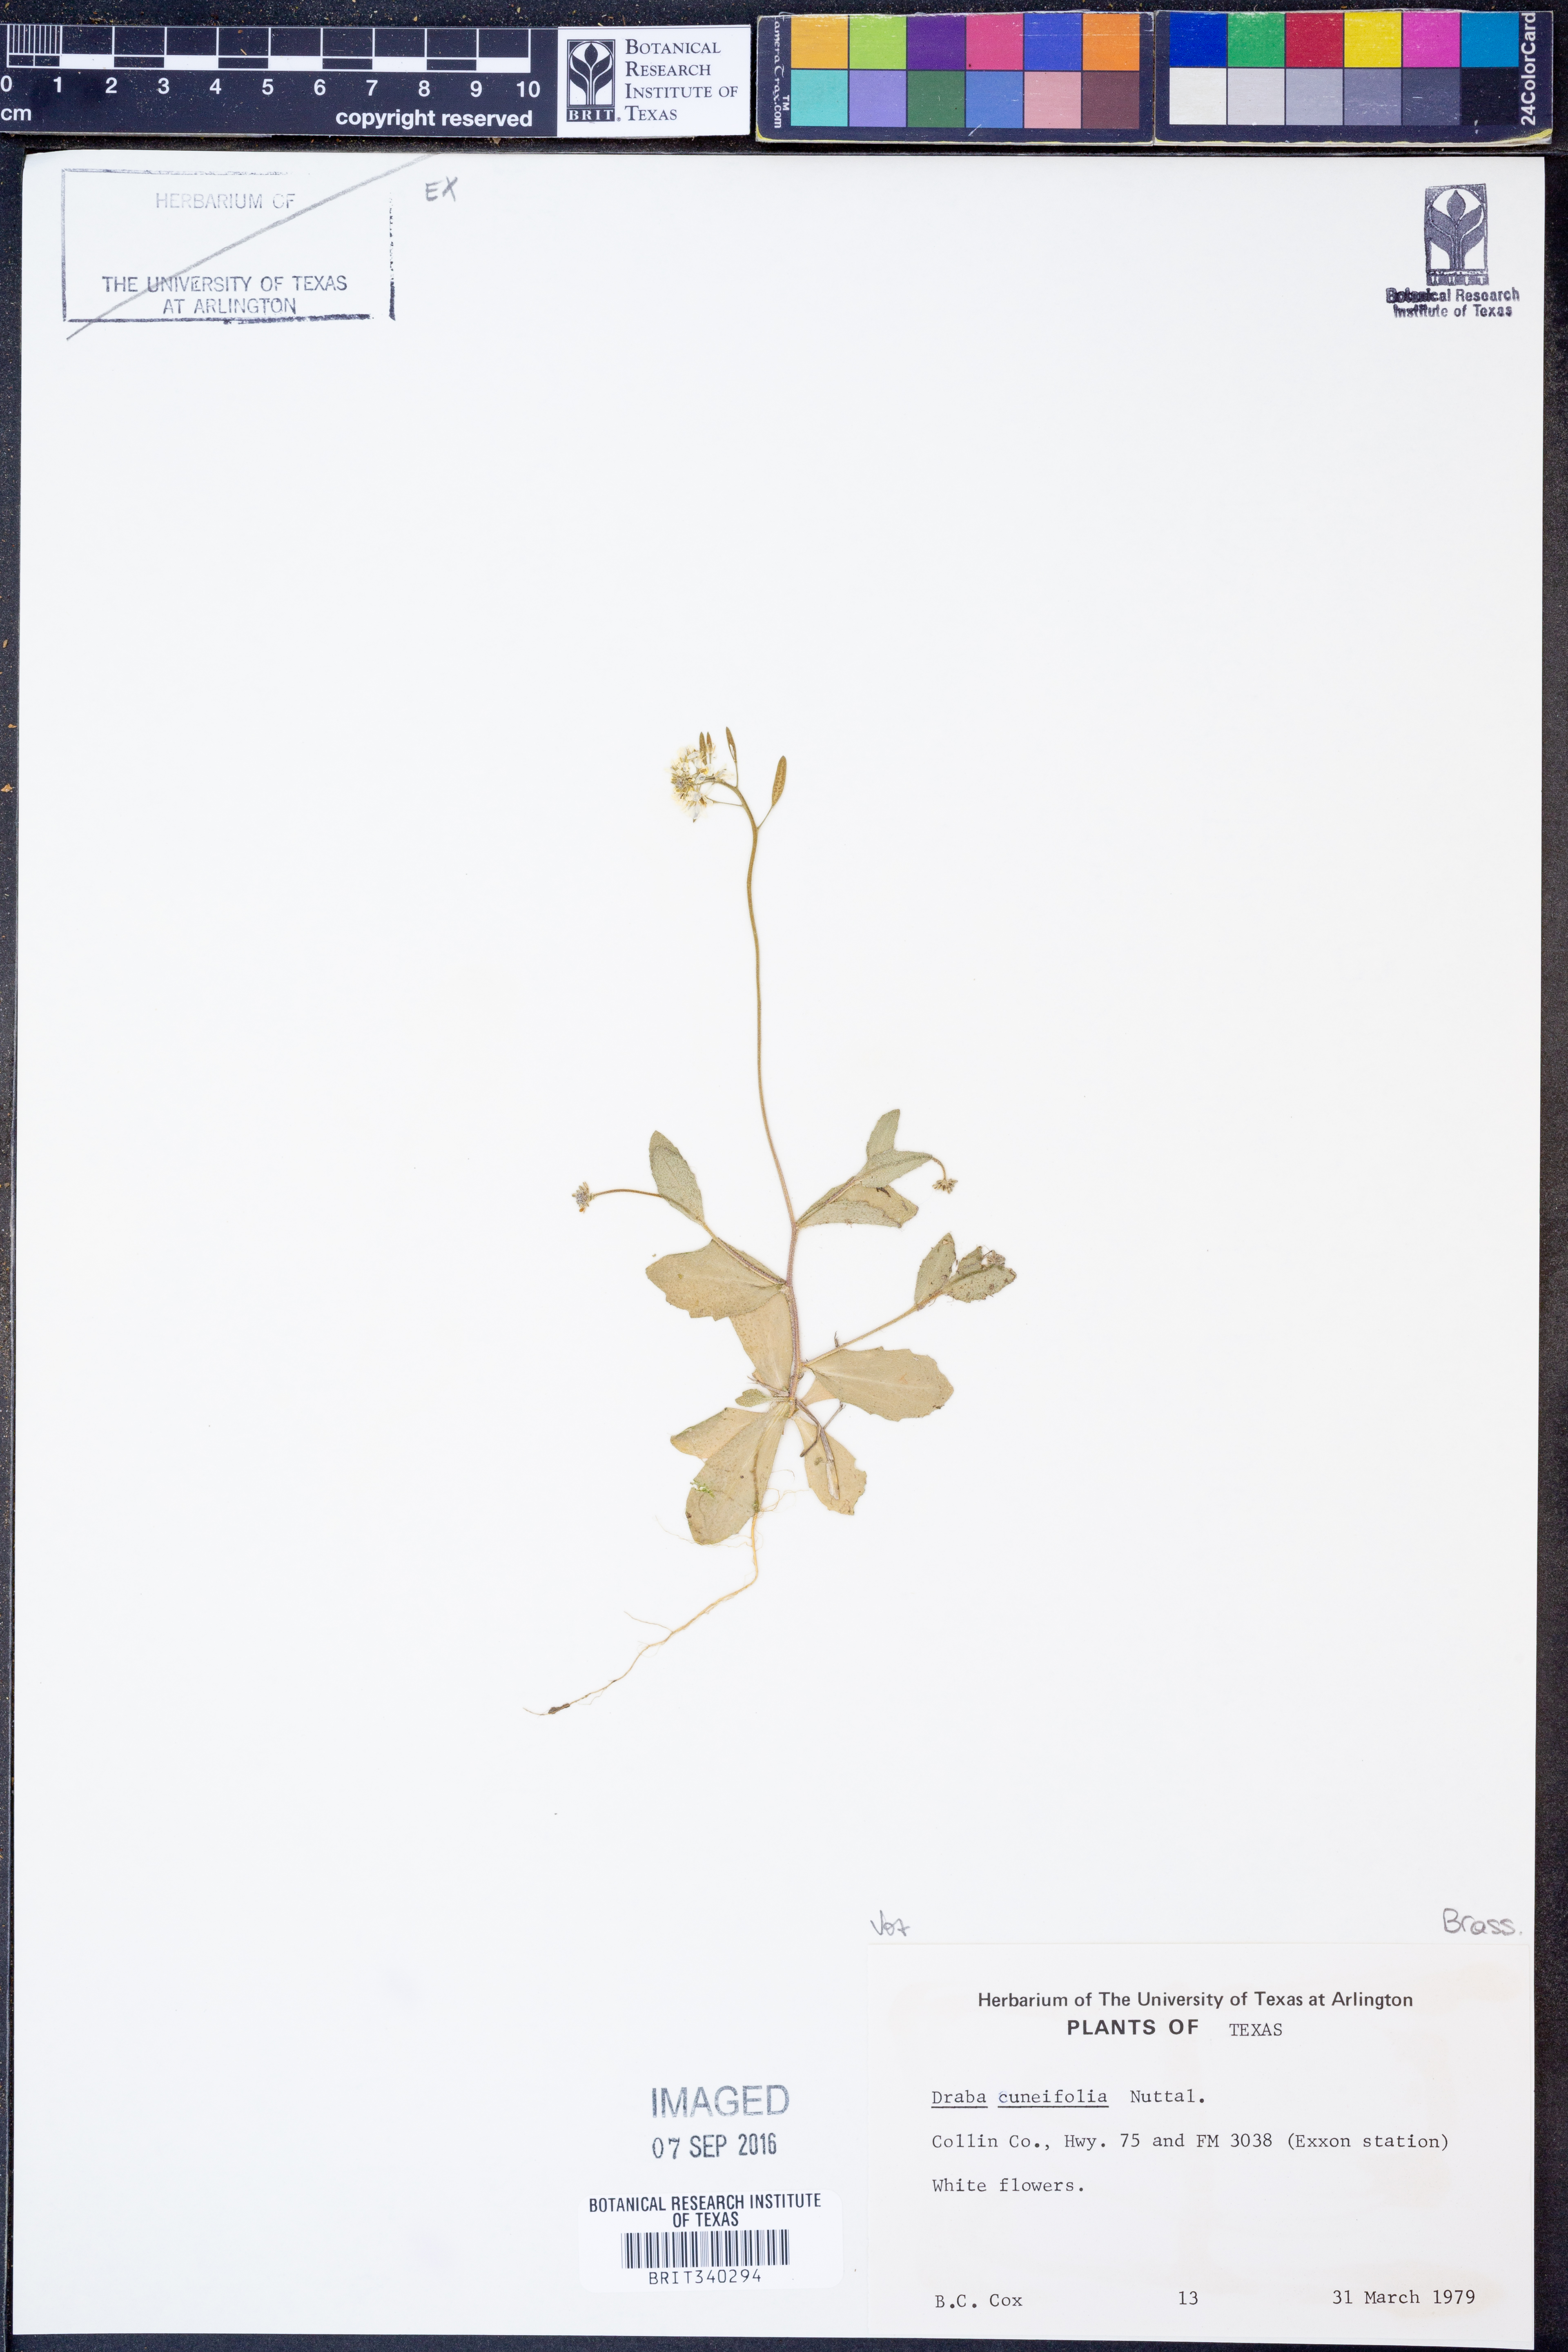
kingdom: Plantae
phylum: Tracheophyta
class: Magnoliopsida
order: Brassicales
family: Brassicaceae
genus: Tomostima
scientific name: Tomostima cuneifolia
